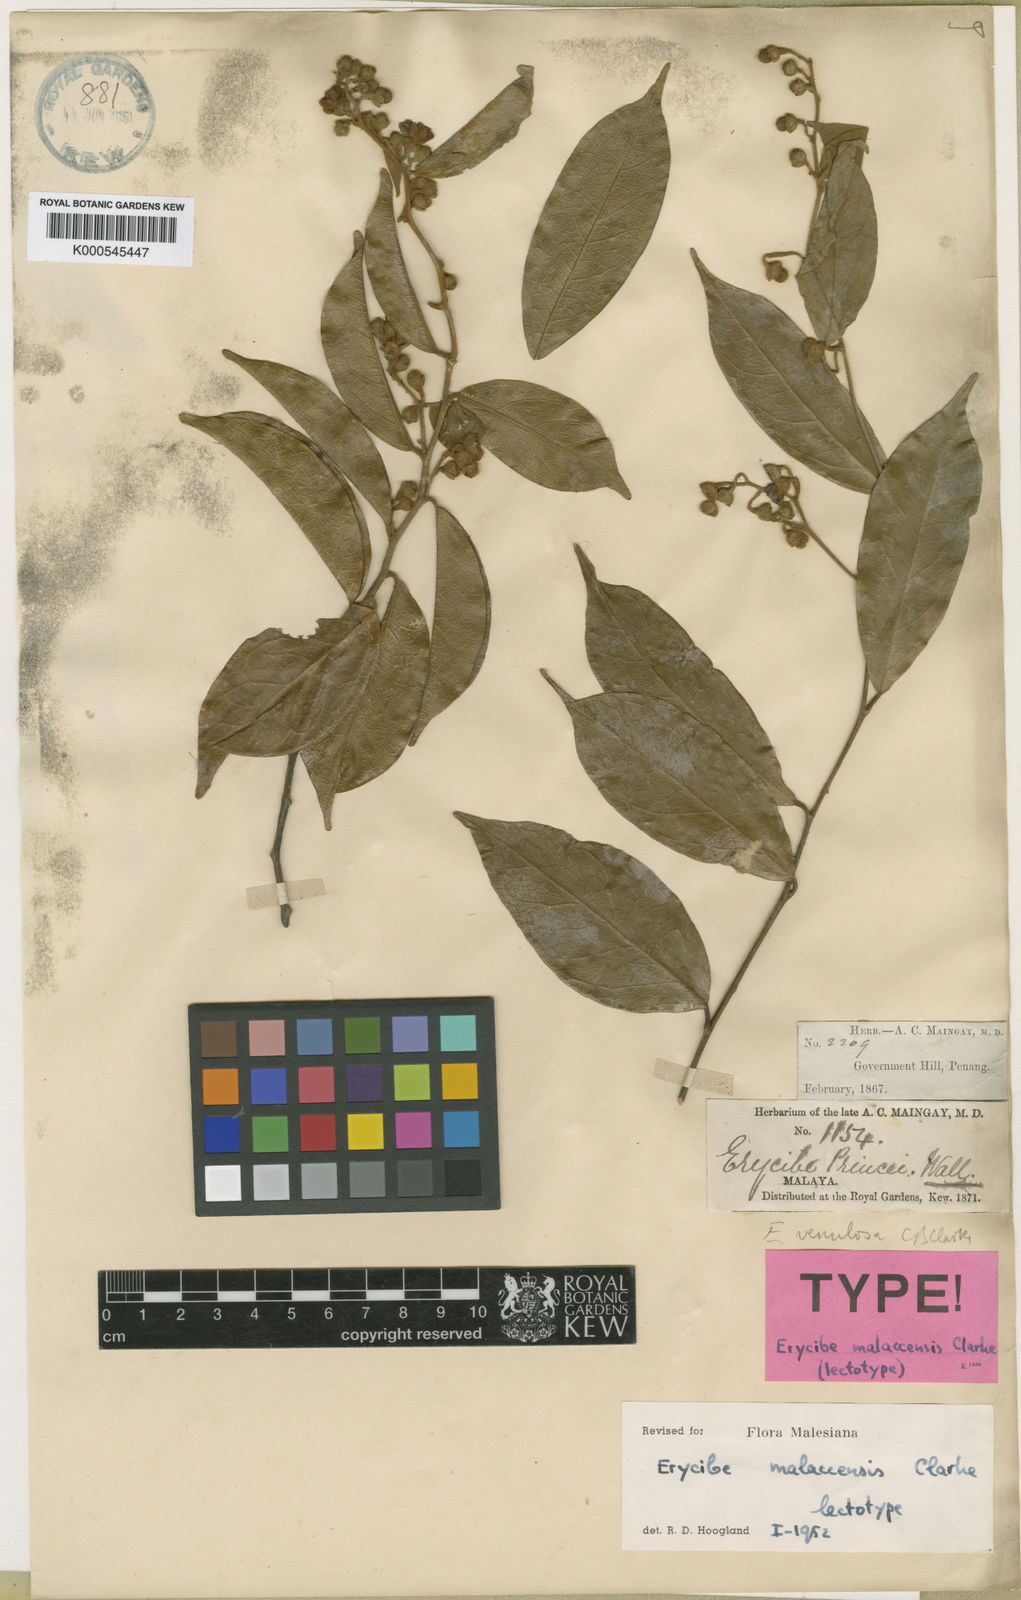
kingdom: Plantae
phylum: Tracheophyta
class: Magnoliopsida
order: Solanales
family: Convolvulaceae
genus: Erycibe
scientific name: Erycibe malaccensis
